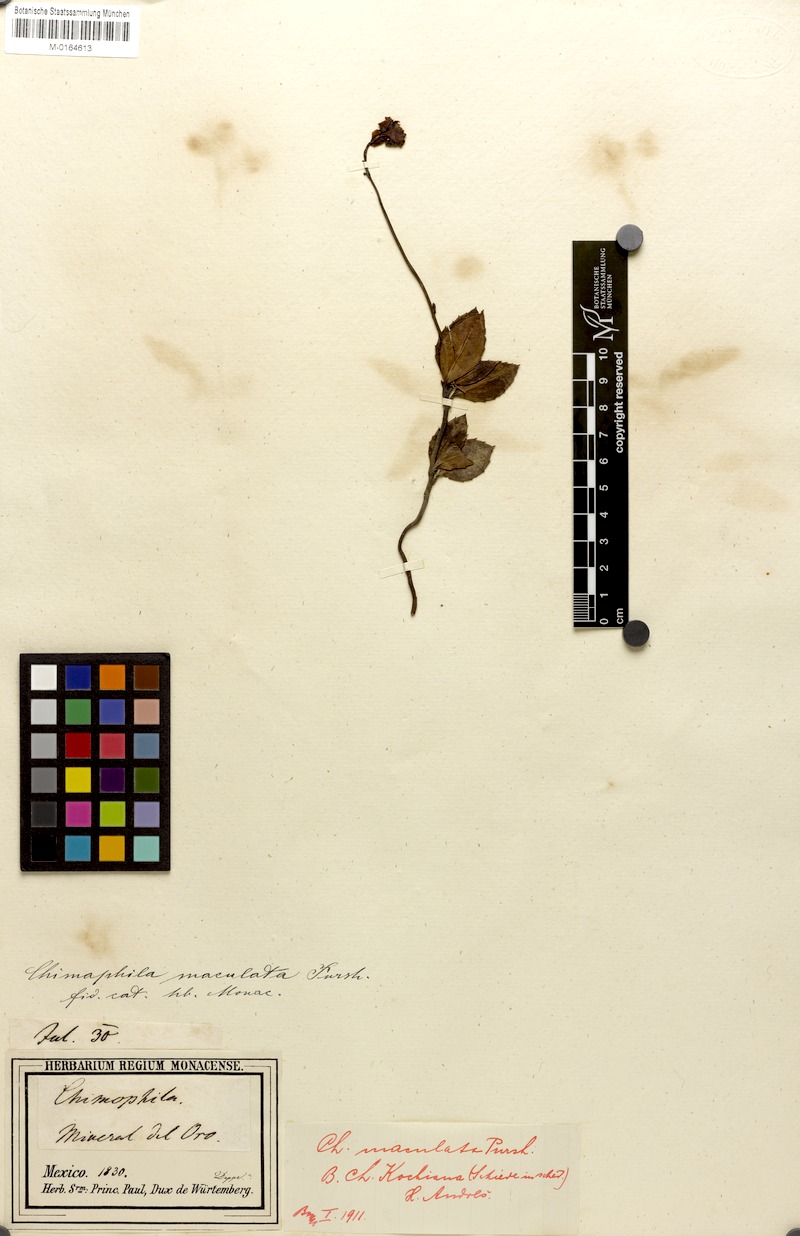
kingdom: Plantae
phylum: Tracheophyta
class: Magnoliopsida
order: Ericales
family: Ericaceae
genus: Chimaphila
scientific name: Chimaphila maculata
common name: Spotted pipsissewa
